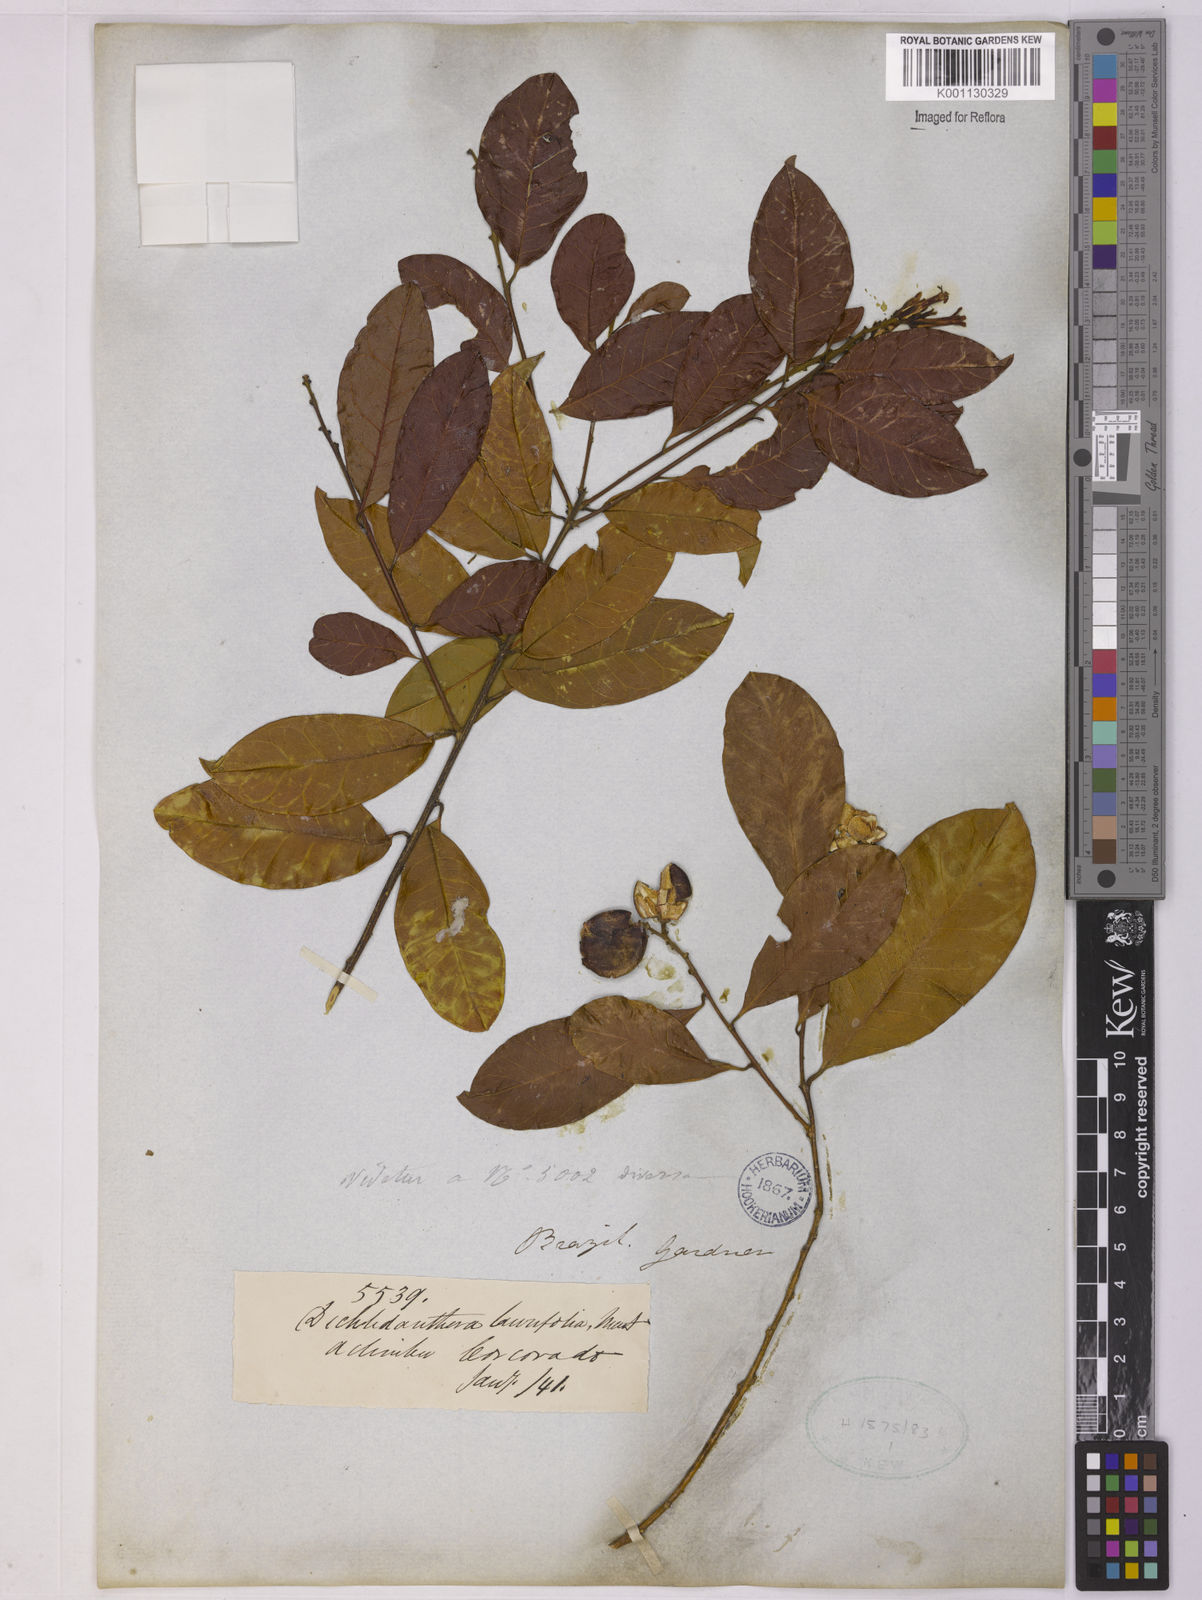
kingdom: Plantae
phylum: Tracheophyta
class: Magnoliopsida
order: Fabales
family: Polygalaceae
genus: Diclidanthera
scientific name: Diclidanthera laurifolia
